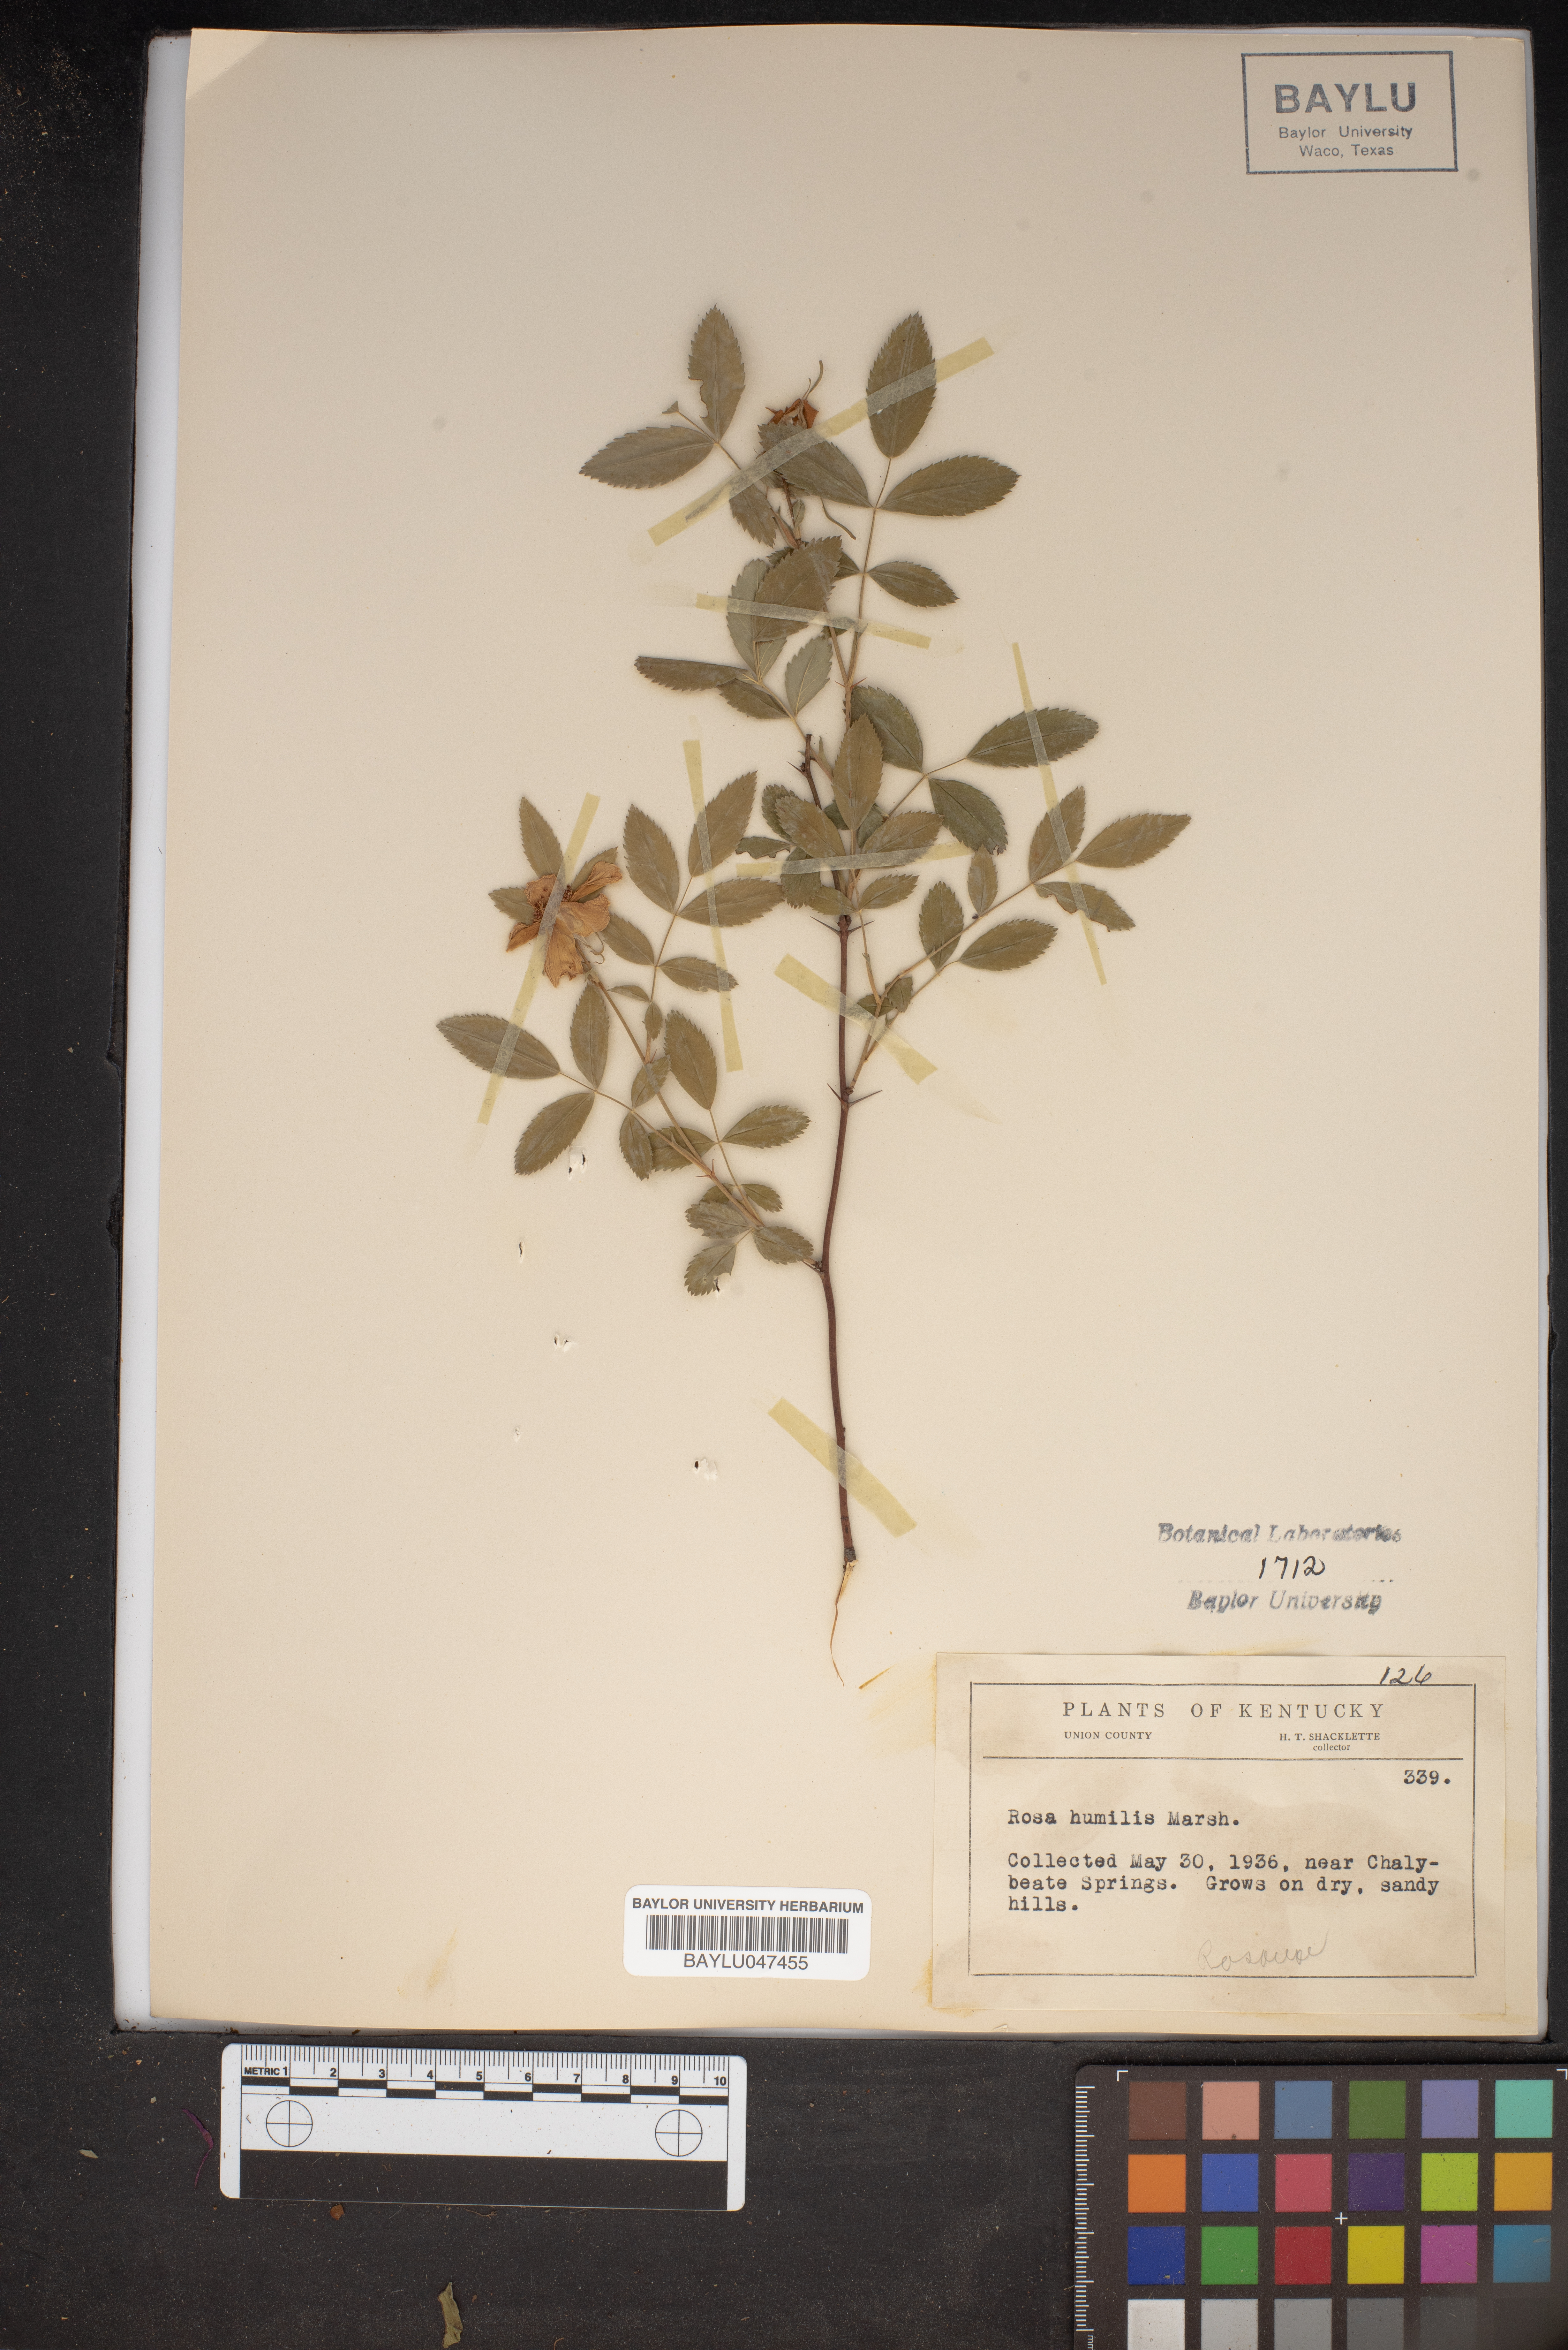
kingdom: Plantae
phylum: Tracheophyta
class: Magnoliopsida
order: Rosales
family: Rosaceae
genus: Rosa
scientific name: Rosa carolina
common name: Pasture rose
